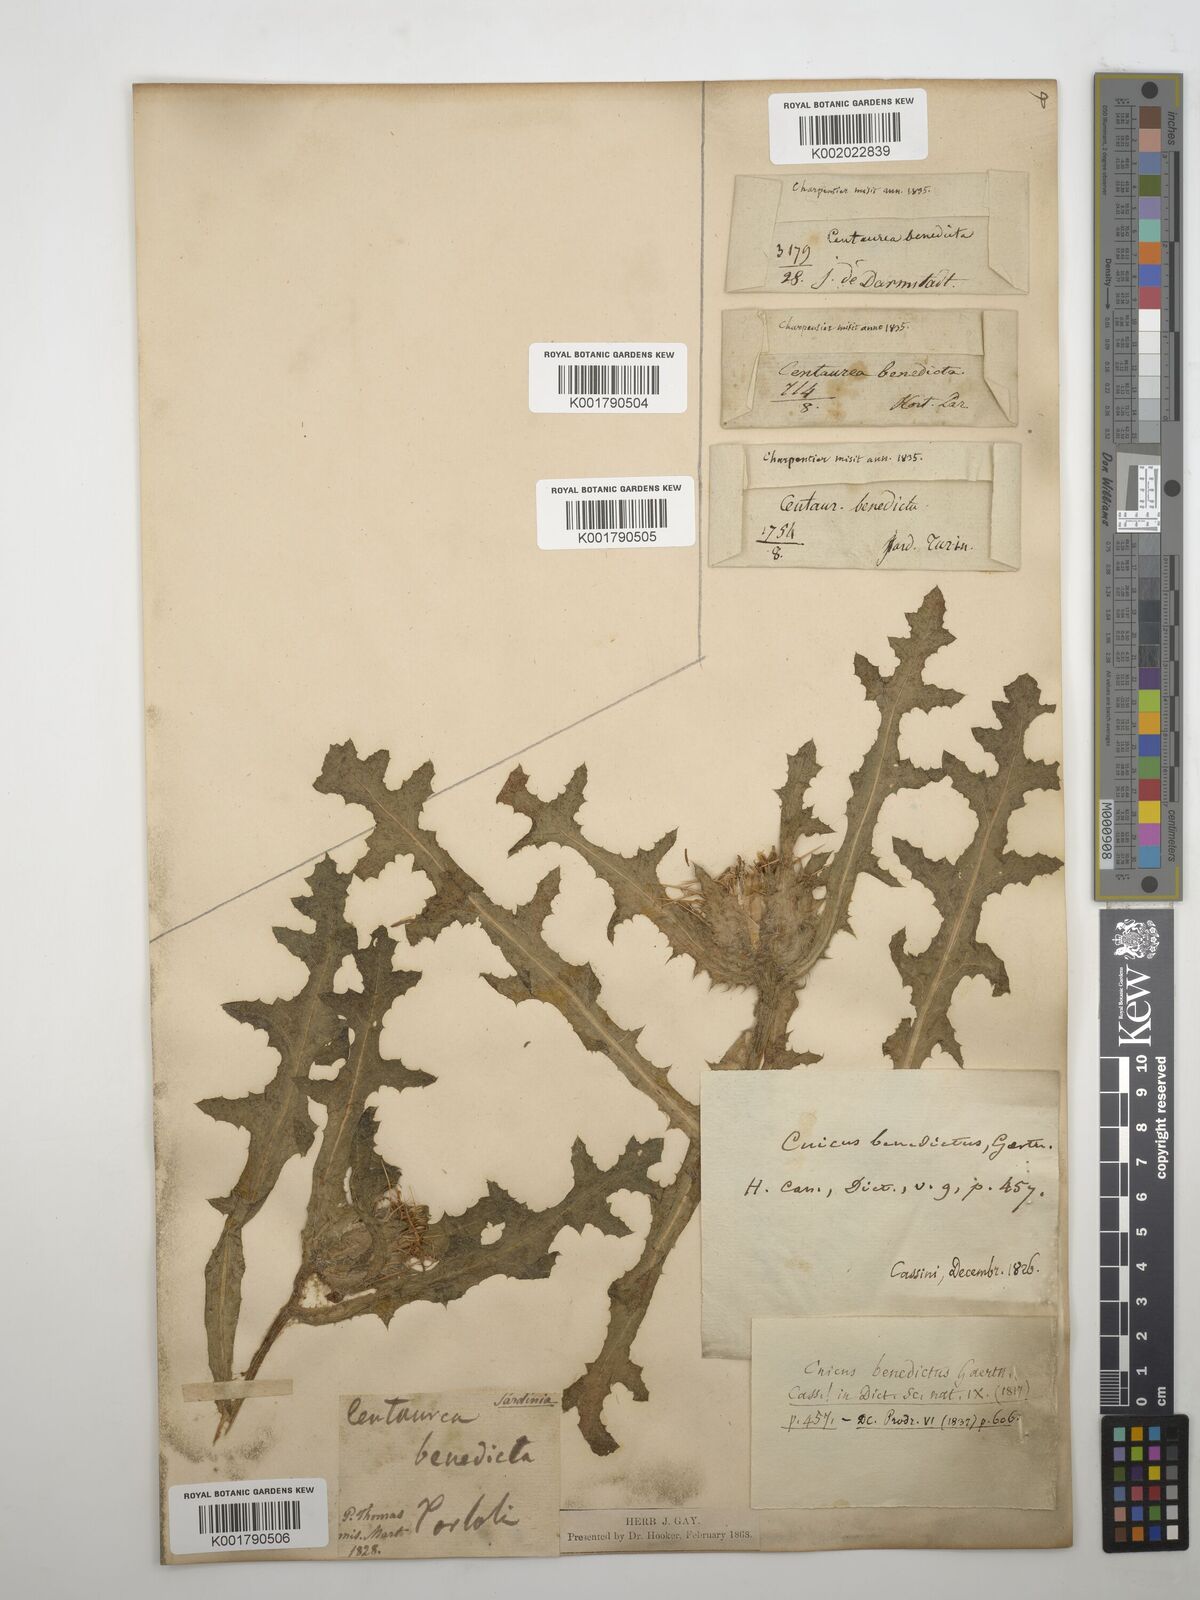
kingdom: Plantae
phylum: Tracheophyta
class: Magnoliopsida
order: Asterales
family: Asteraceae
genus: Centaurea
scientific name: Centaurea benedicta
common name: Blessed thistle
